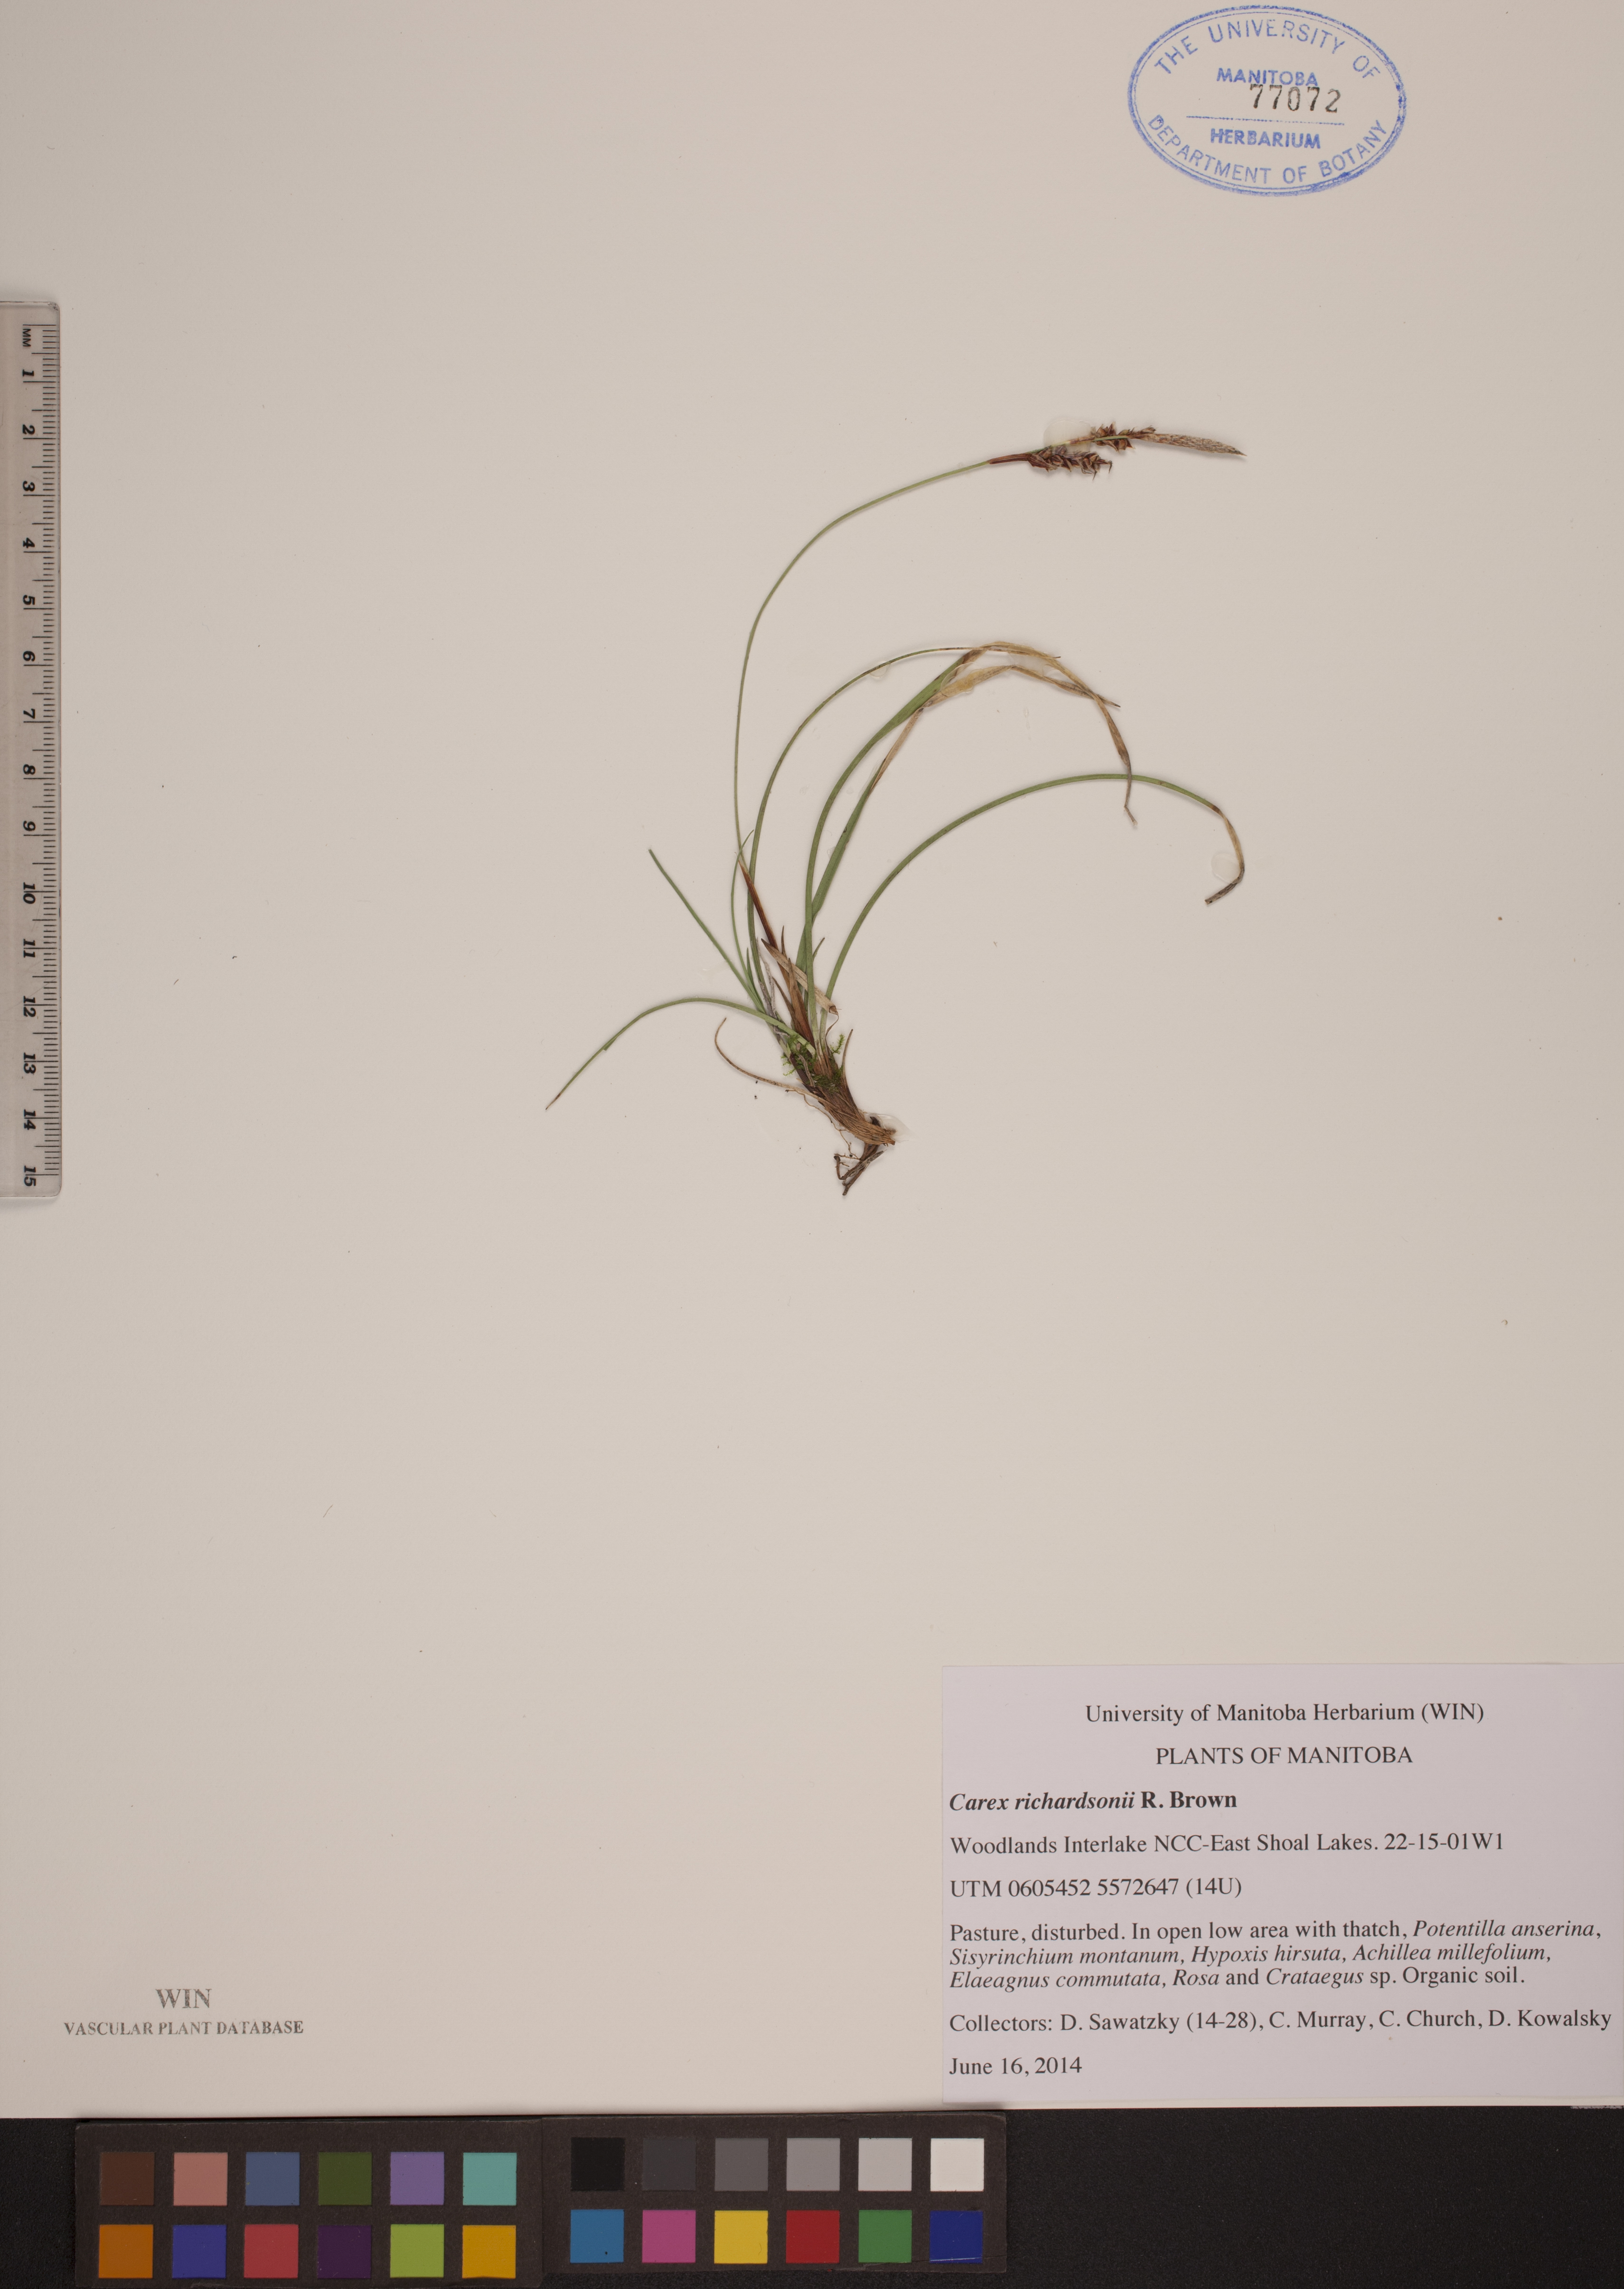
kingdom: Plantae
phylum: Tracheophyta
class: Liliopsida
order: Poales
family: Cyperaceae
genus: Carex
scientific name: Carex richardsonii
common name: Prairie hummock sedge
